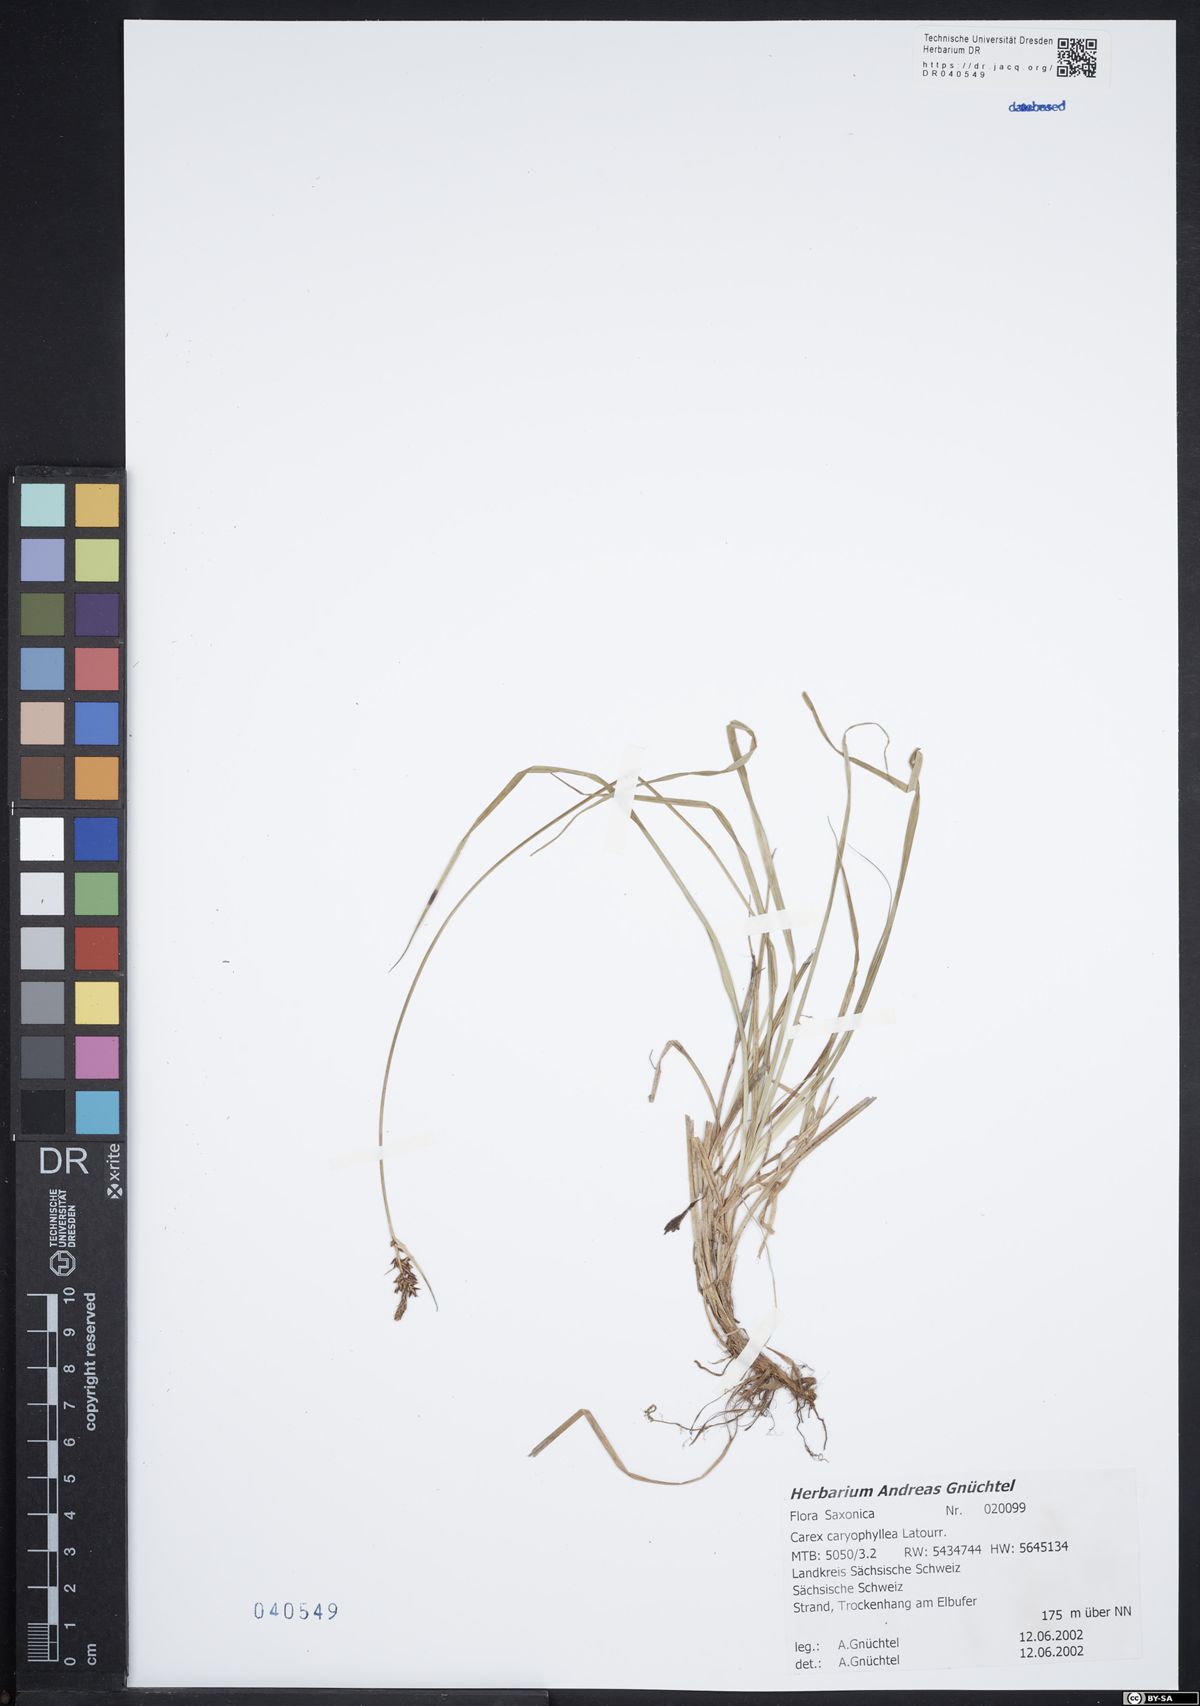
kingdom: Plantae
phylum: Tracheophyta
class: Liliopsida
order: Poales
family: Cyperaceae
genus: Carex
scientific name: Carex caryophyllea
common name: Spring sedge
